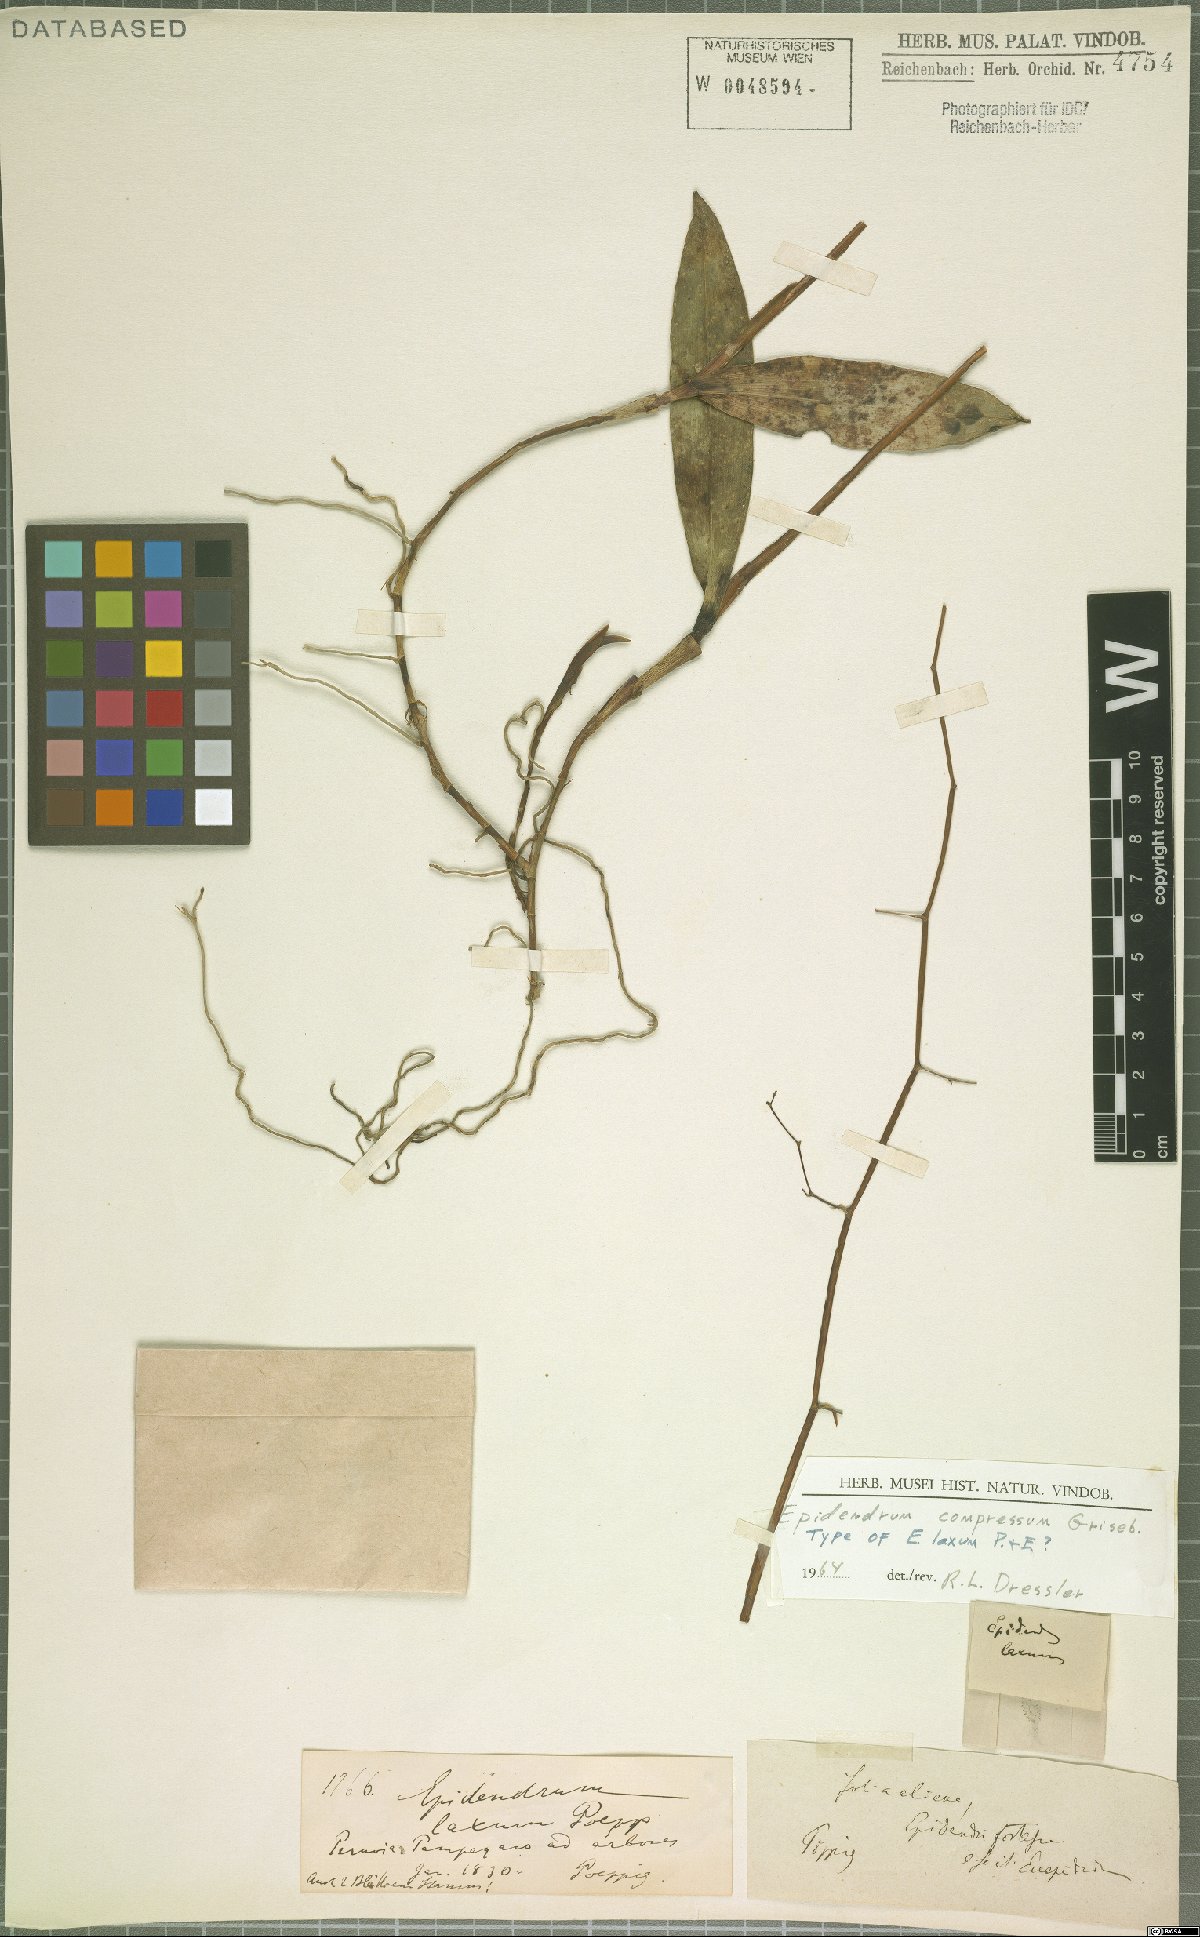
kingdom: Plantae
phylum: Tracheophyta
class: Liliopsida
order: Asparagales
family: Orchidaceae
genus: Epidendrum
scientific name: Epidendrum compressum
